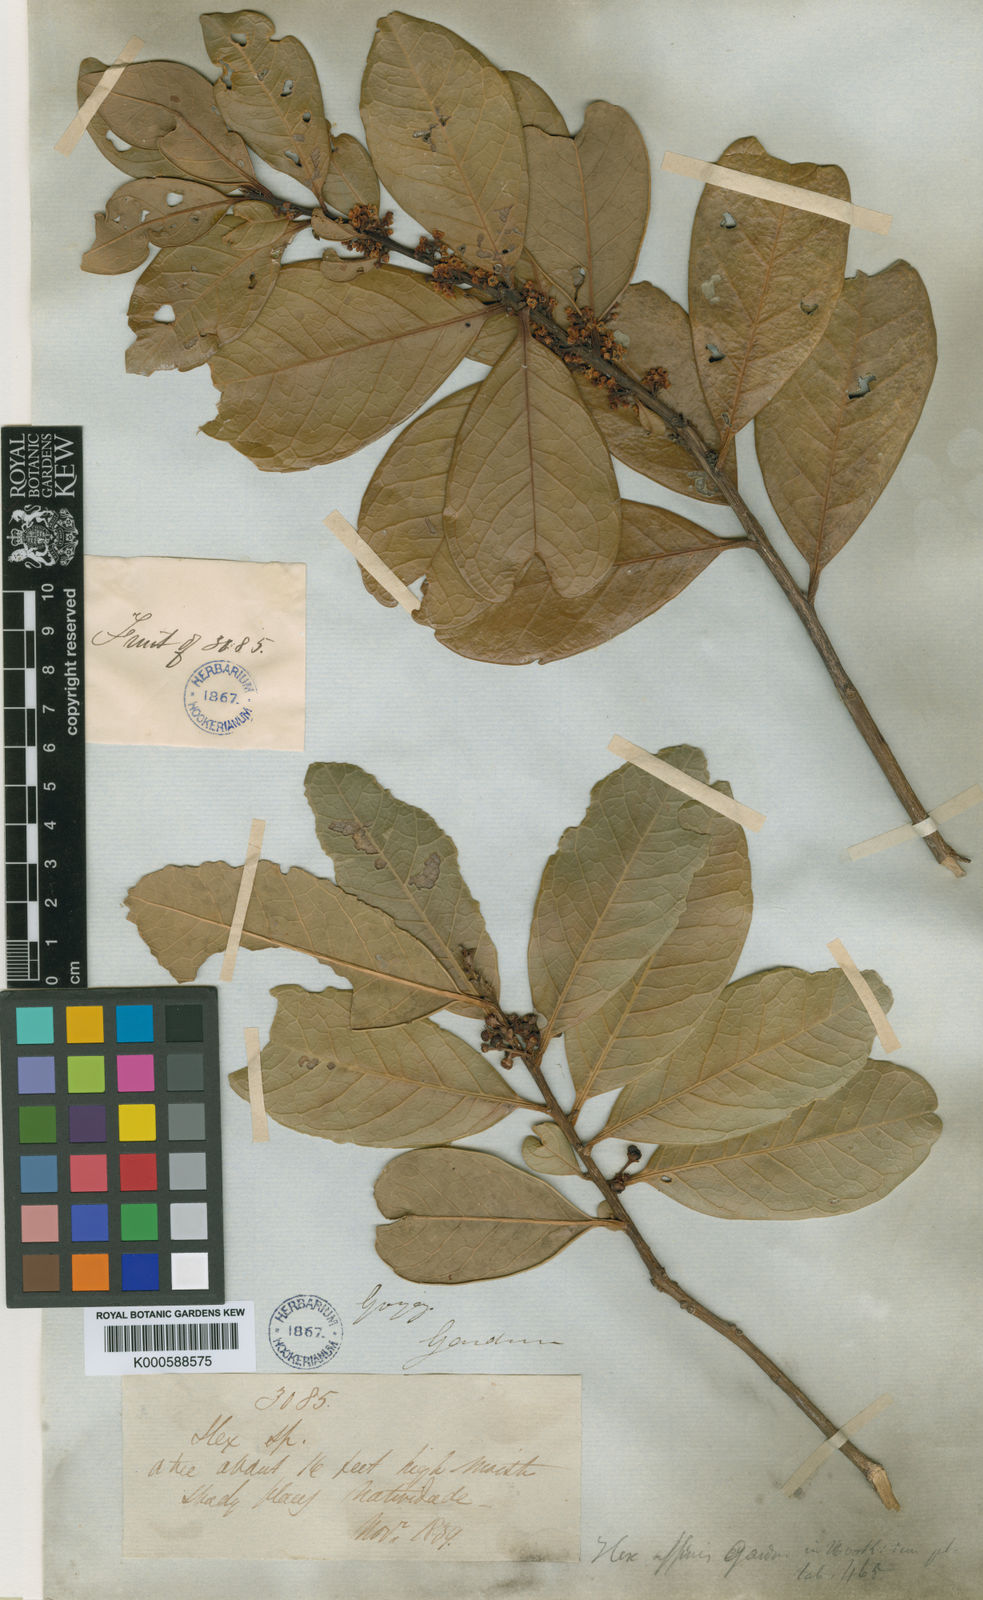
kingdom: Plantae
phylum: Tracheophyta
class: Magnoliopsida
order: Aquifoliales
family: Aquifoliaceae
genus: Ilex
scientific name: Ilex affinis
